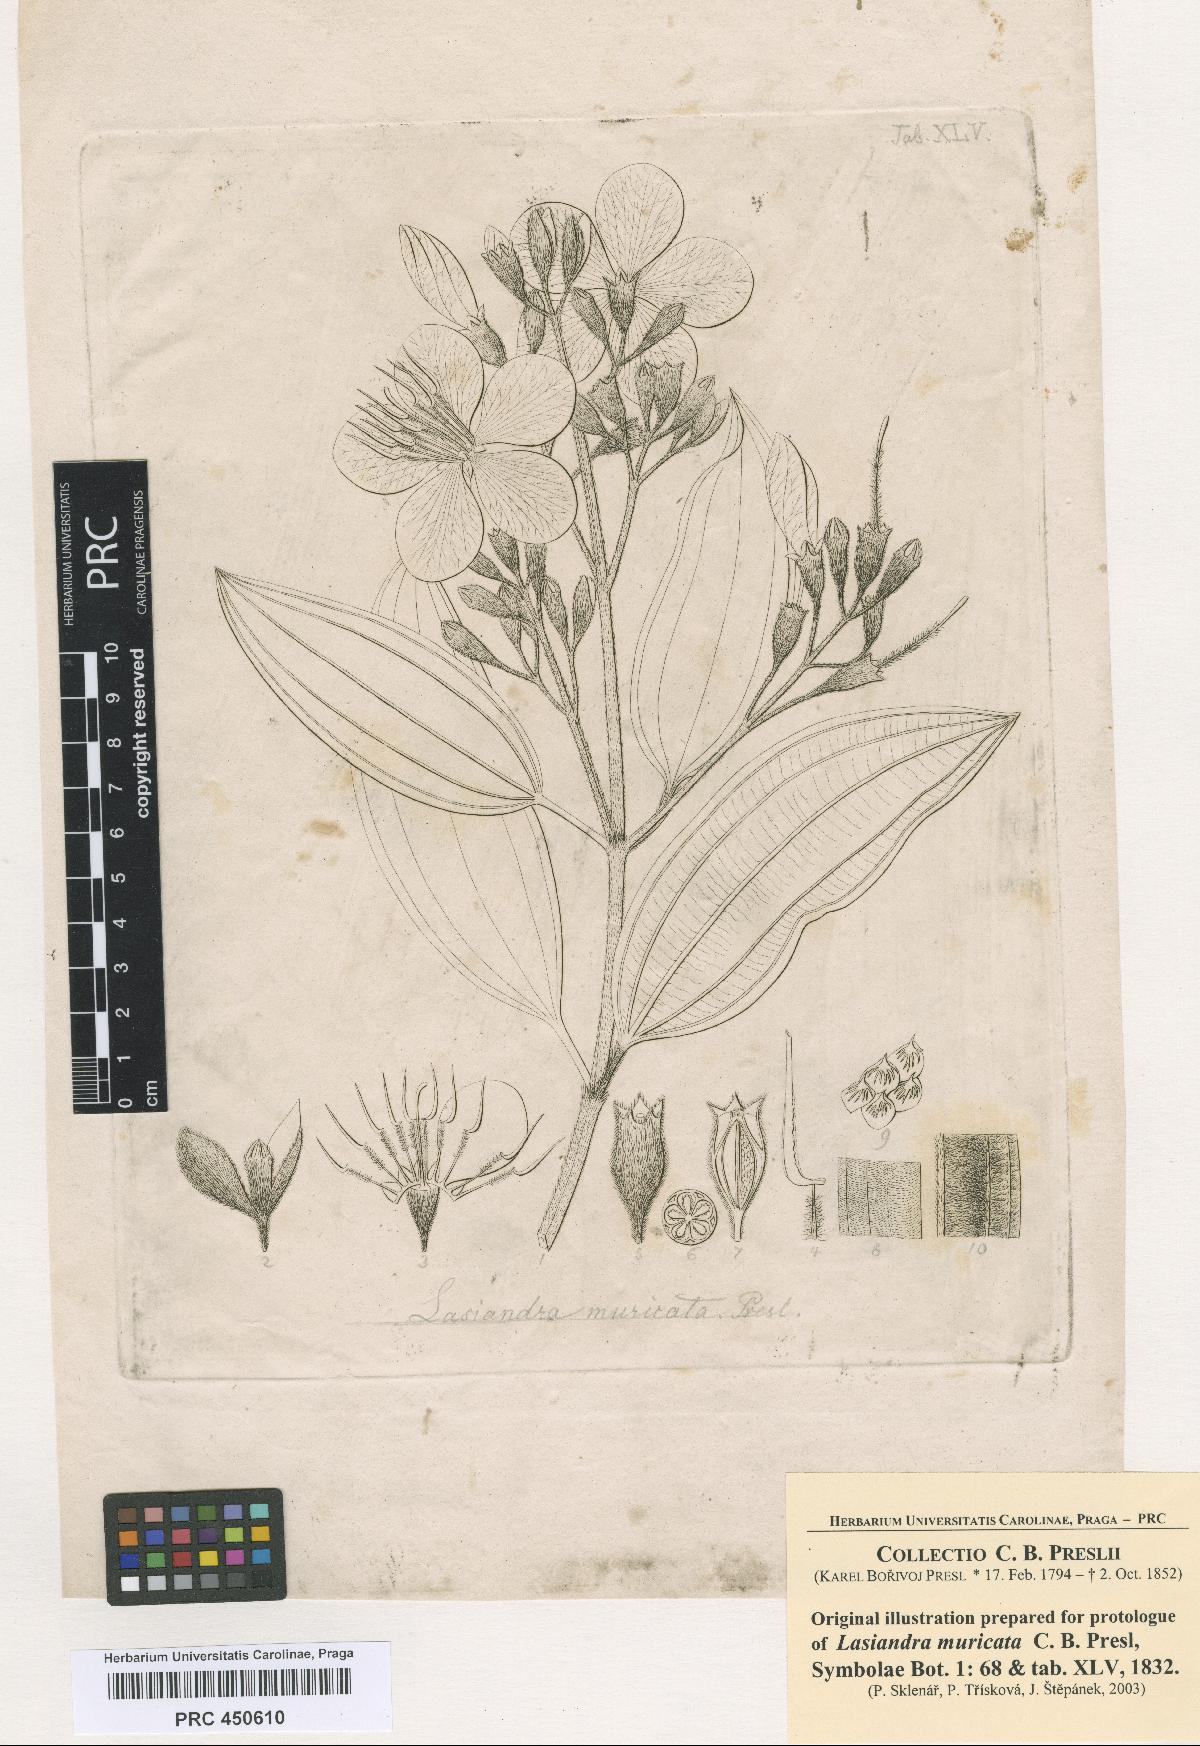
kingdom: Plantae
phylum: Tracheophyta
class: Magnoliopsida
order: Myrtales
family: Melastomataceae
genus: Pleroma
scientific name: Pleroma estrellense
